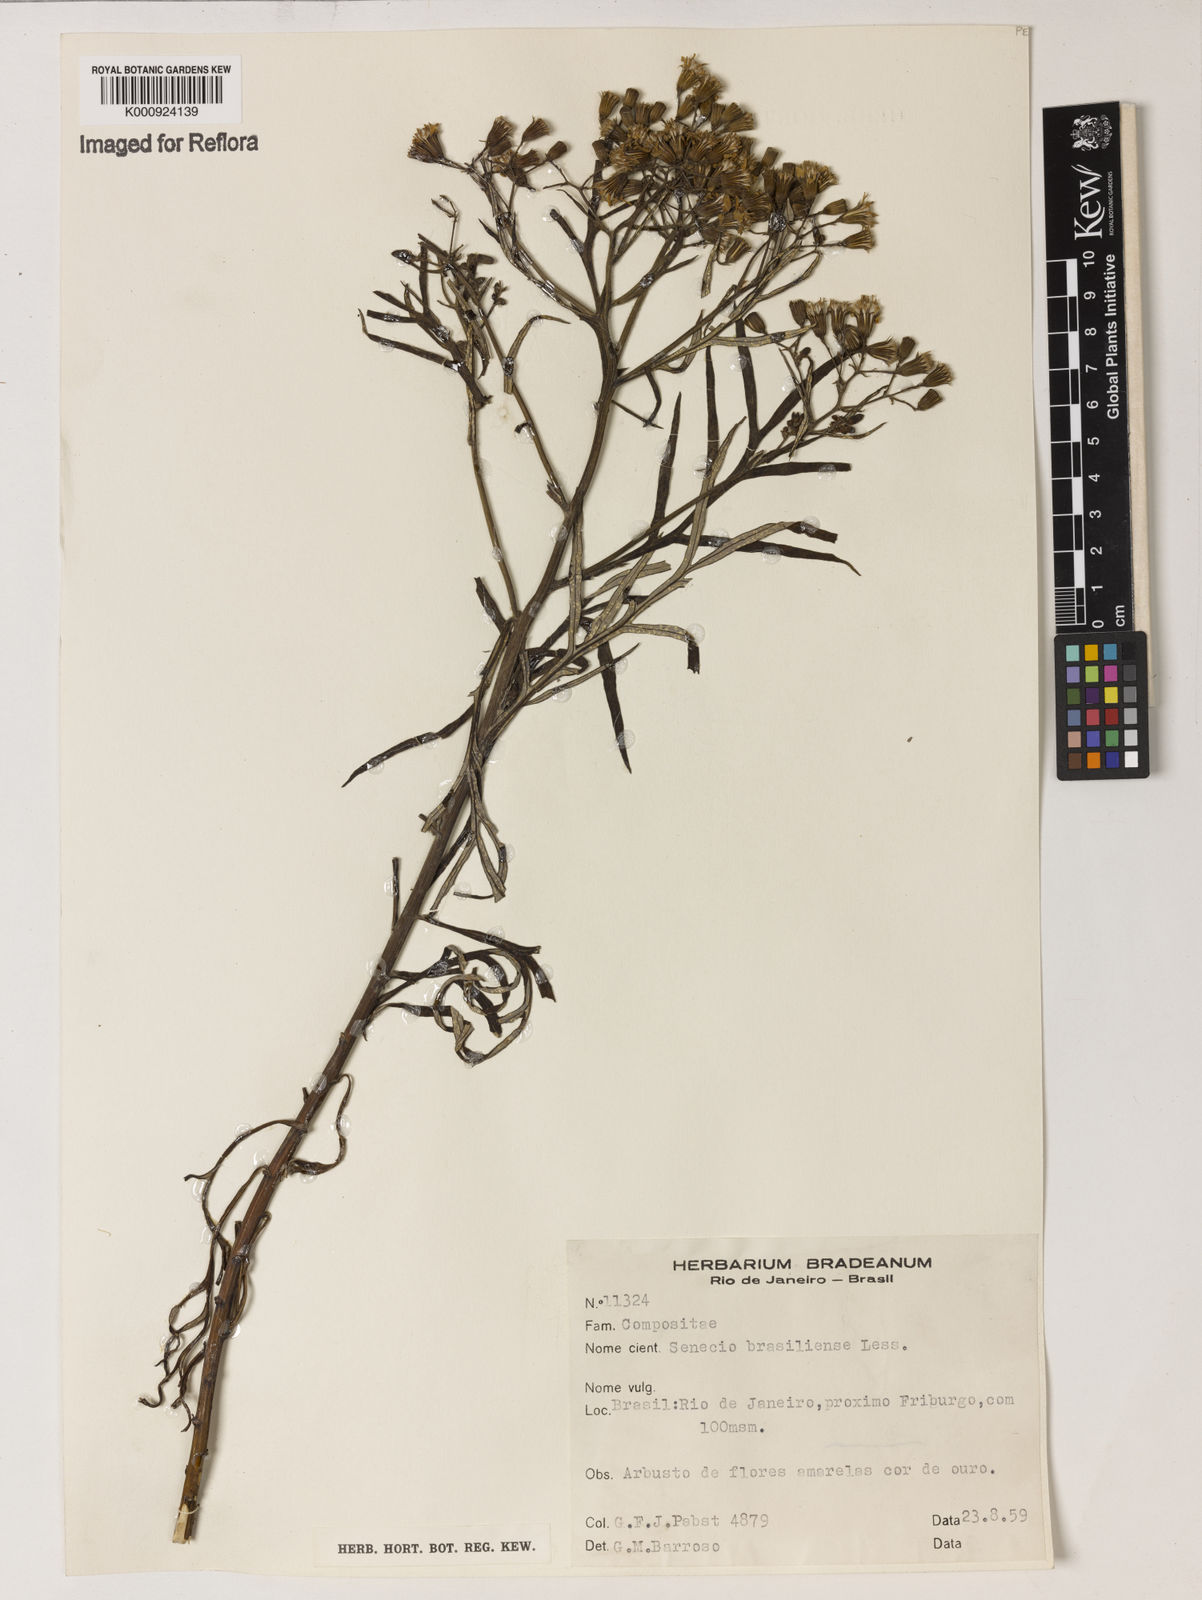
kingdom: Plantae
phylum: Tracheophyta
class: Magnoliopsida
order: Asterales
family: Asteraceae
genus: Senecio
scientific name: Senecio brasiliensis
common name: Hemp-leaf ragwort
